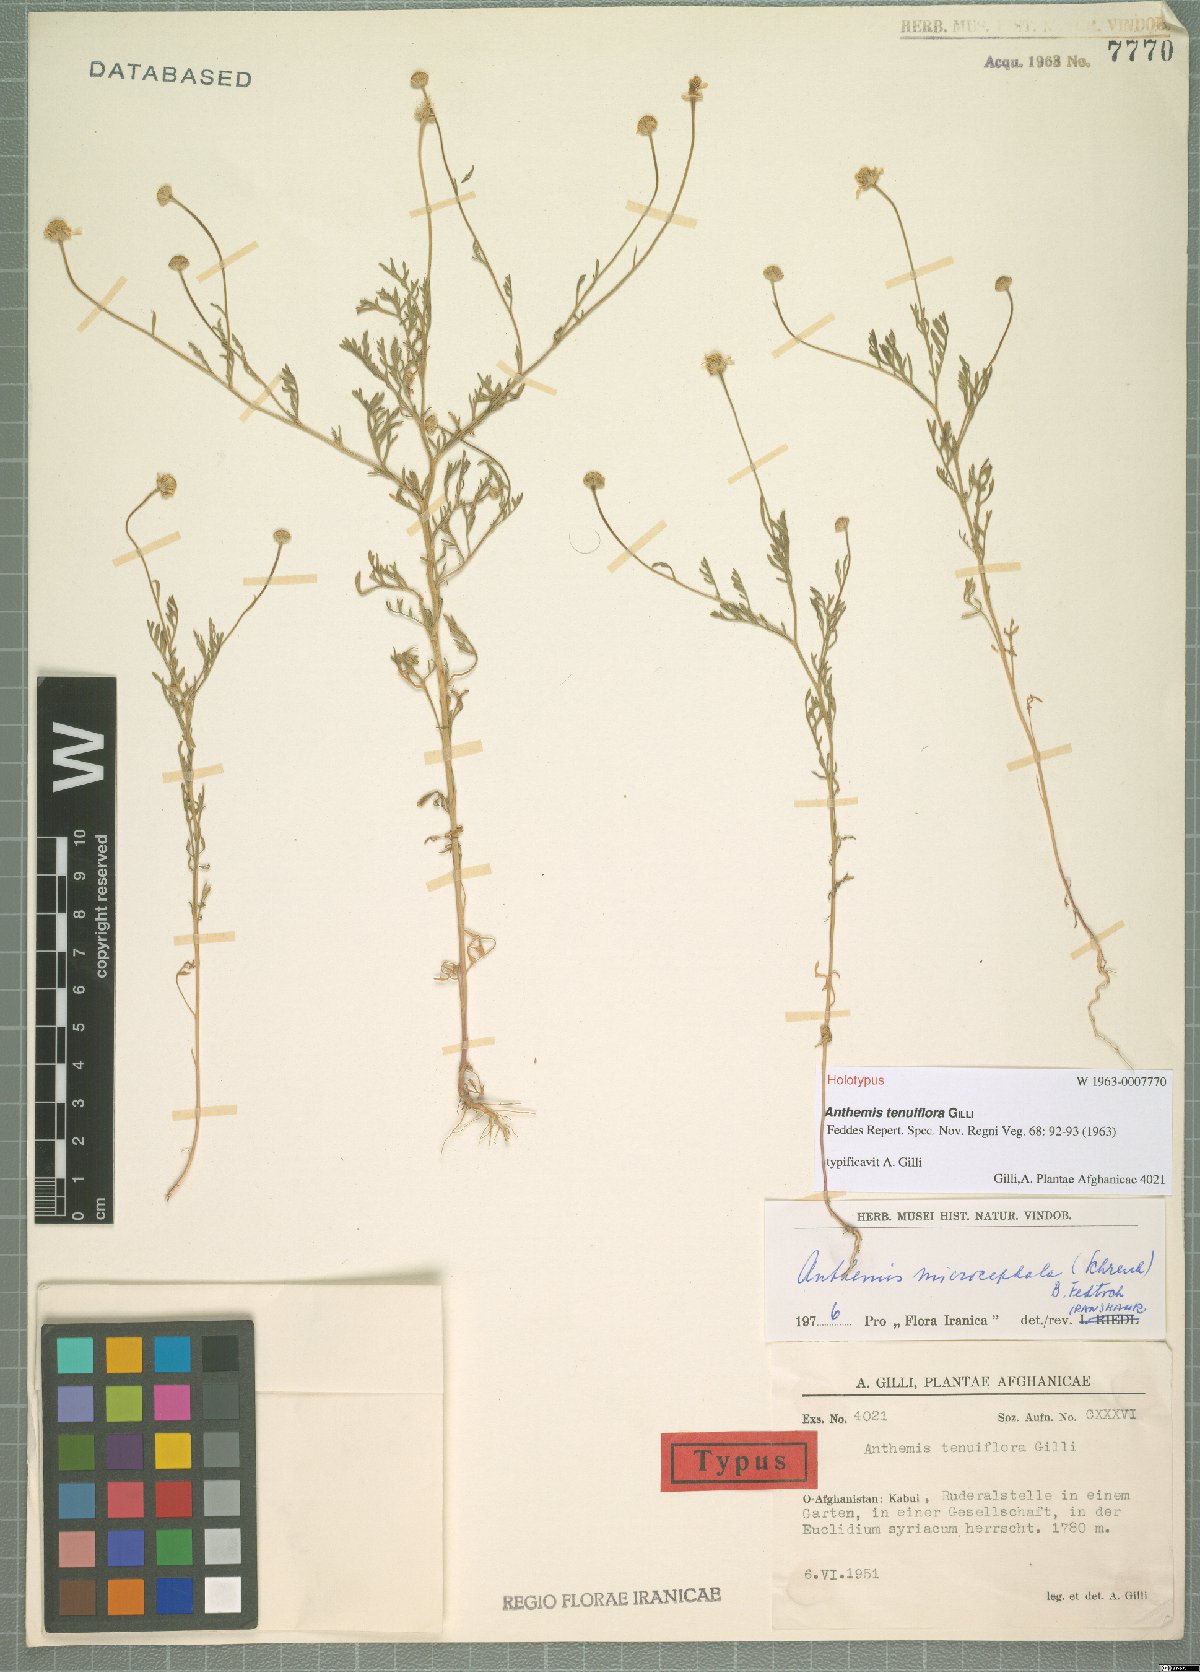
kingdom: Plantae
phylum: Tracheophyta
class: Magnoliopsida
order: Asterales
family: Asteraceae
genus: Anthemis
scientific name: Anthemis microcephala
